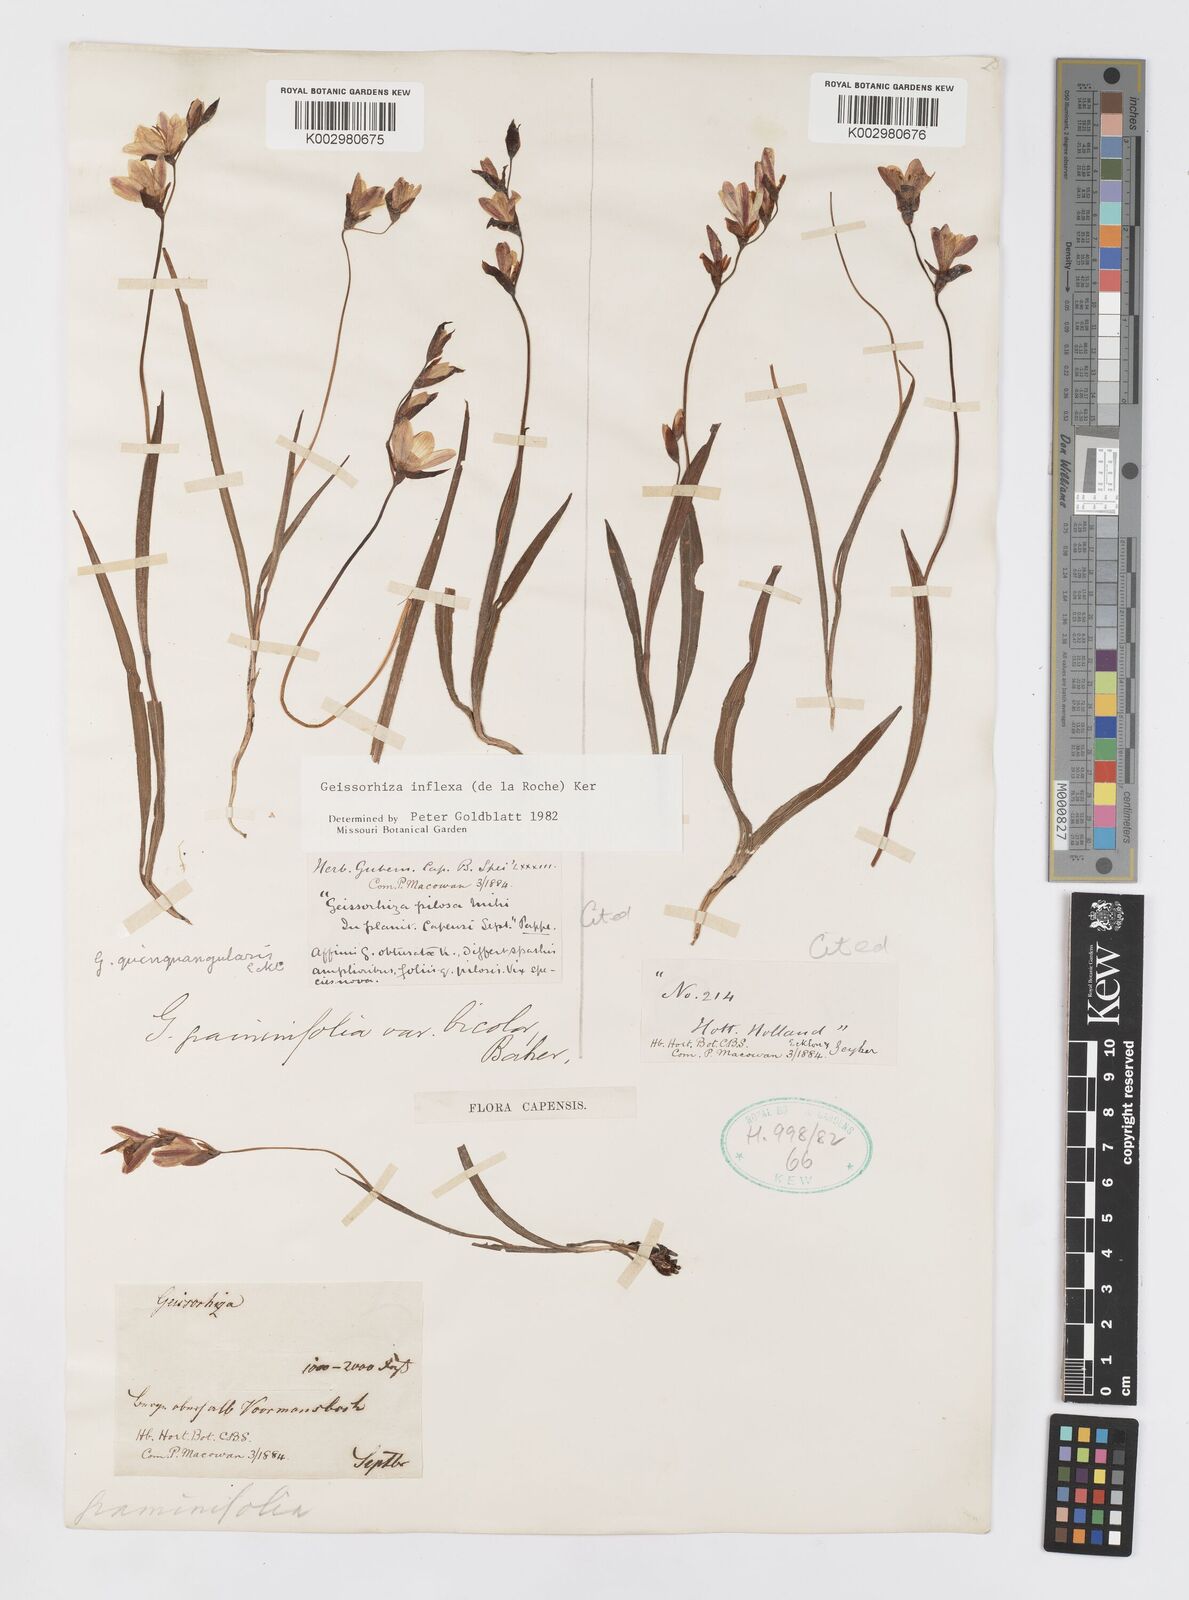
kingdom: Plantae
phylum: Tracheophyta
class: Liliopsida
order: Asparagales
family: Iridaceae
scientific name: Iridaceae
